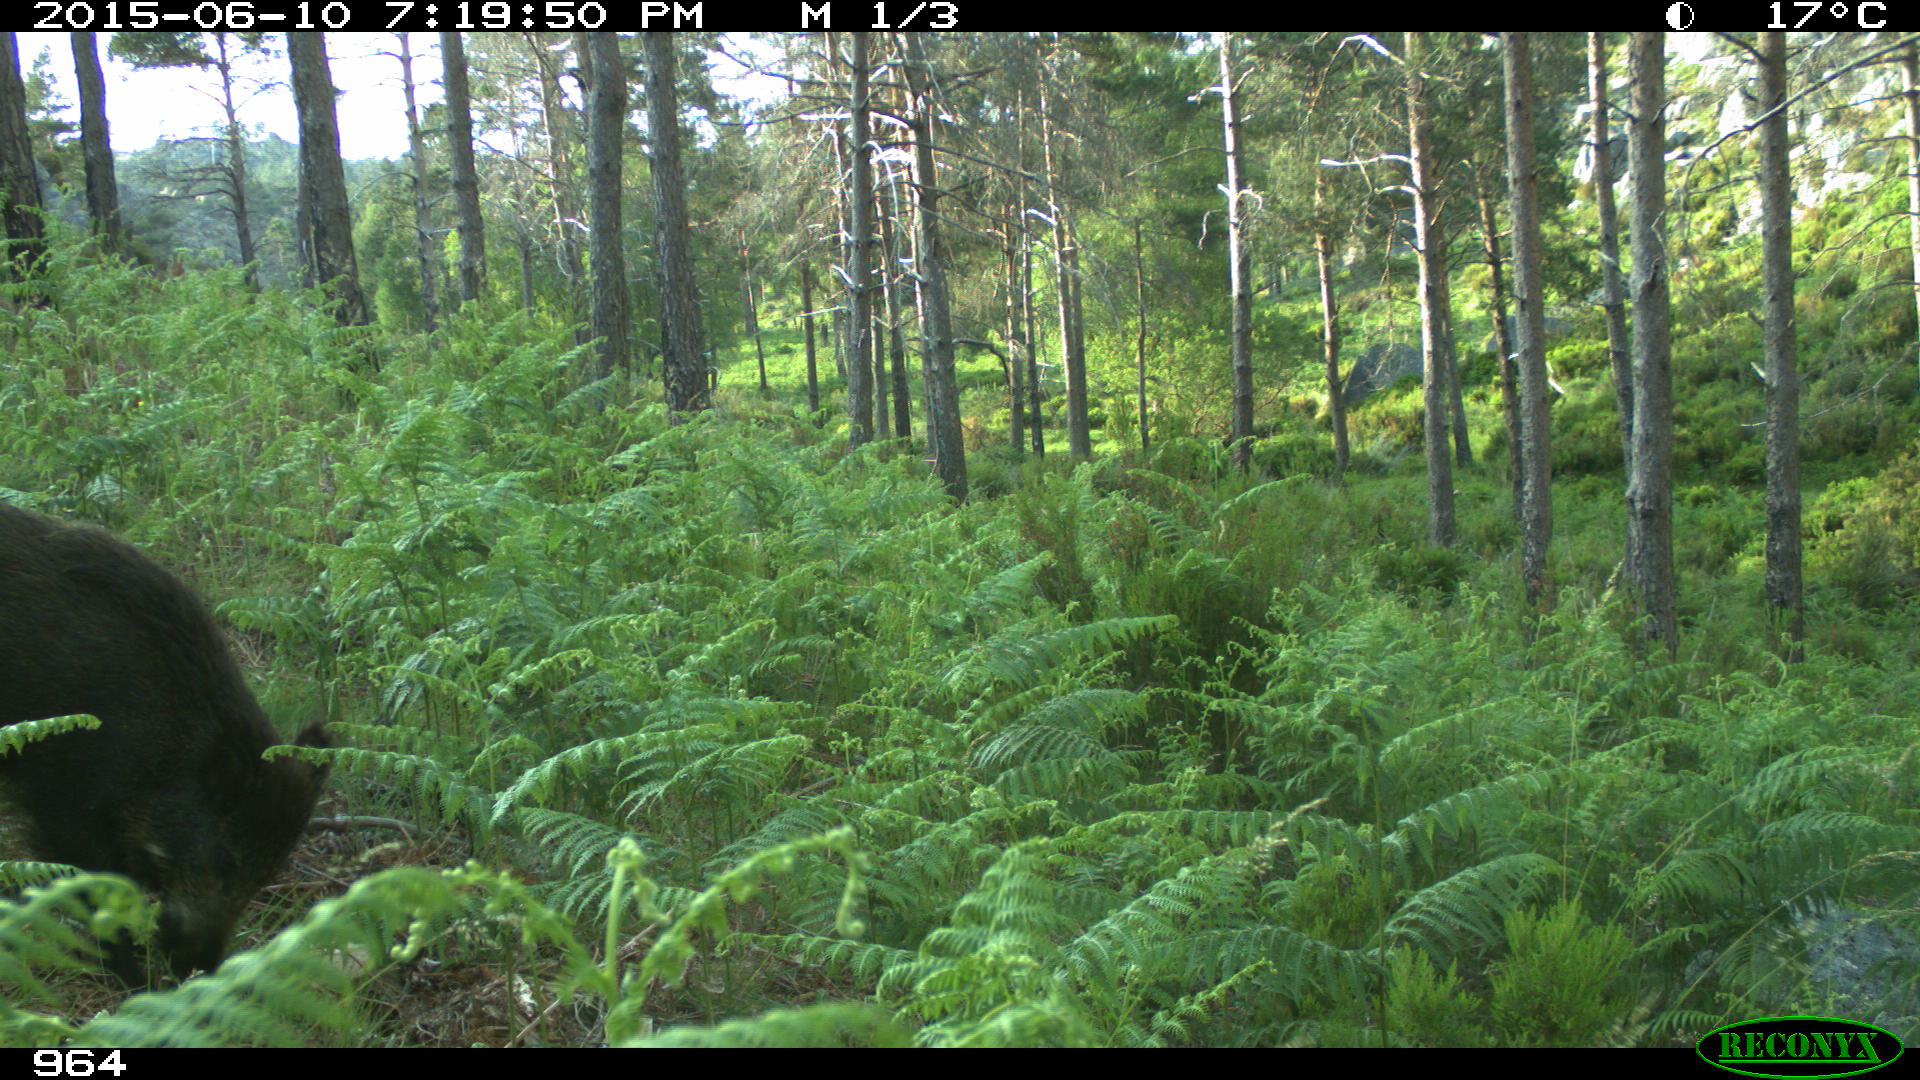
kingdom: Animalia
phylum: Chordata
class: Mammalia
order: Artiodactyla
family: Suidae
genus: Sus
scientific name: Sus scrofa
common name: Wild boar
